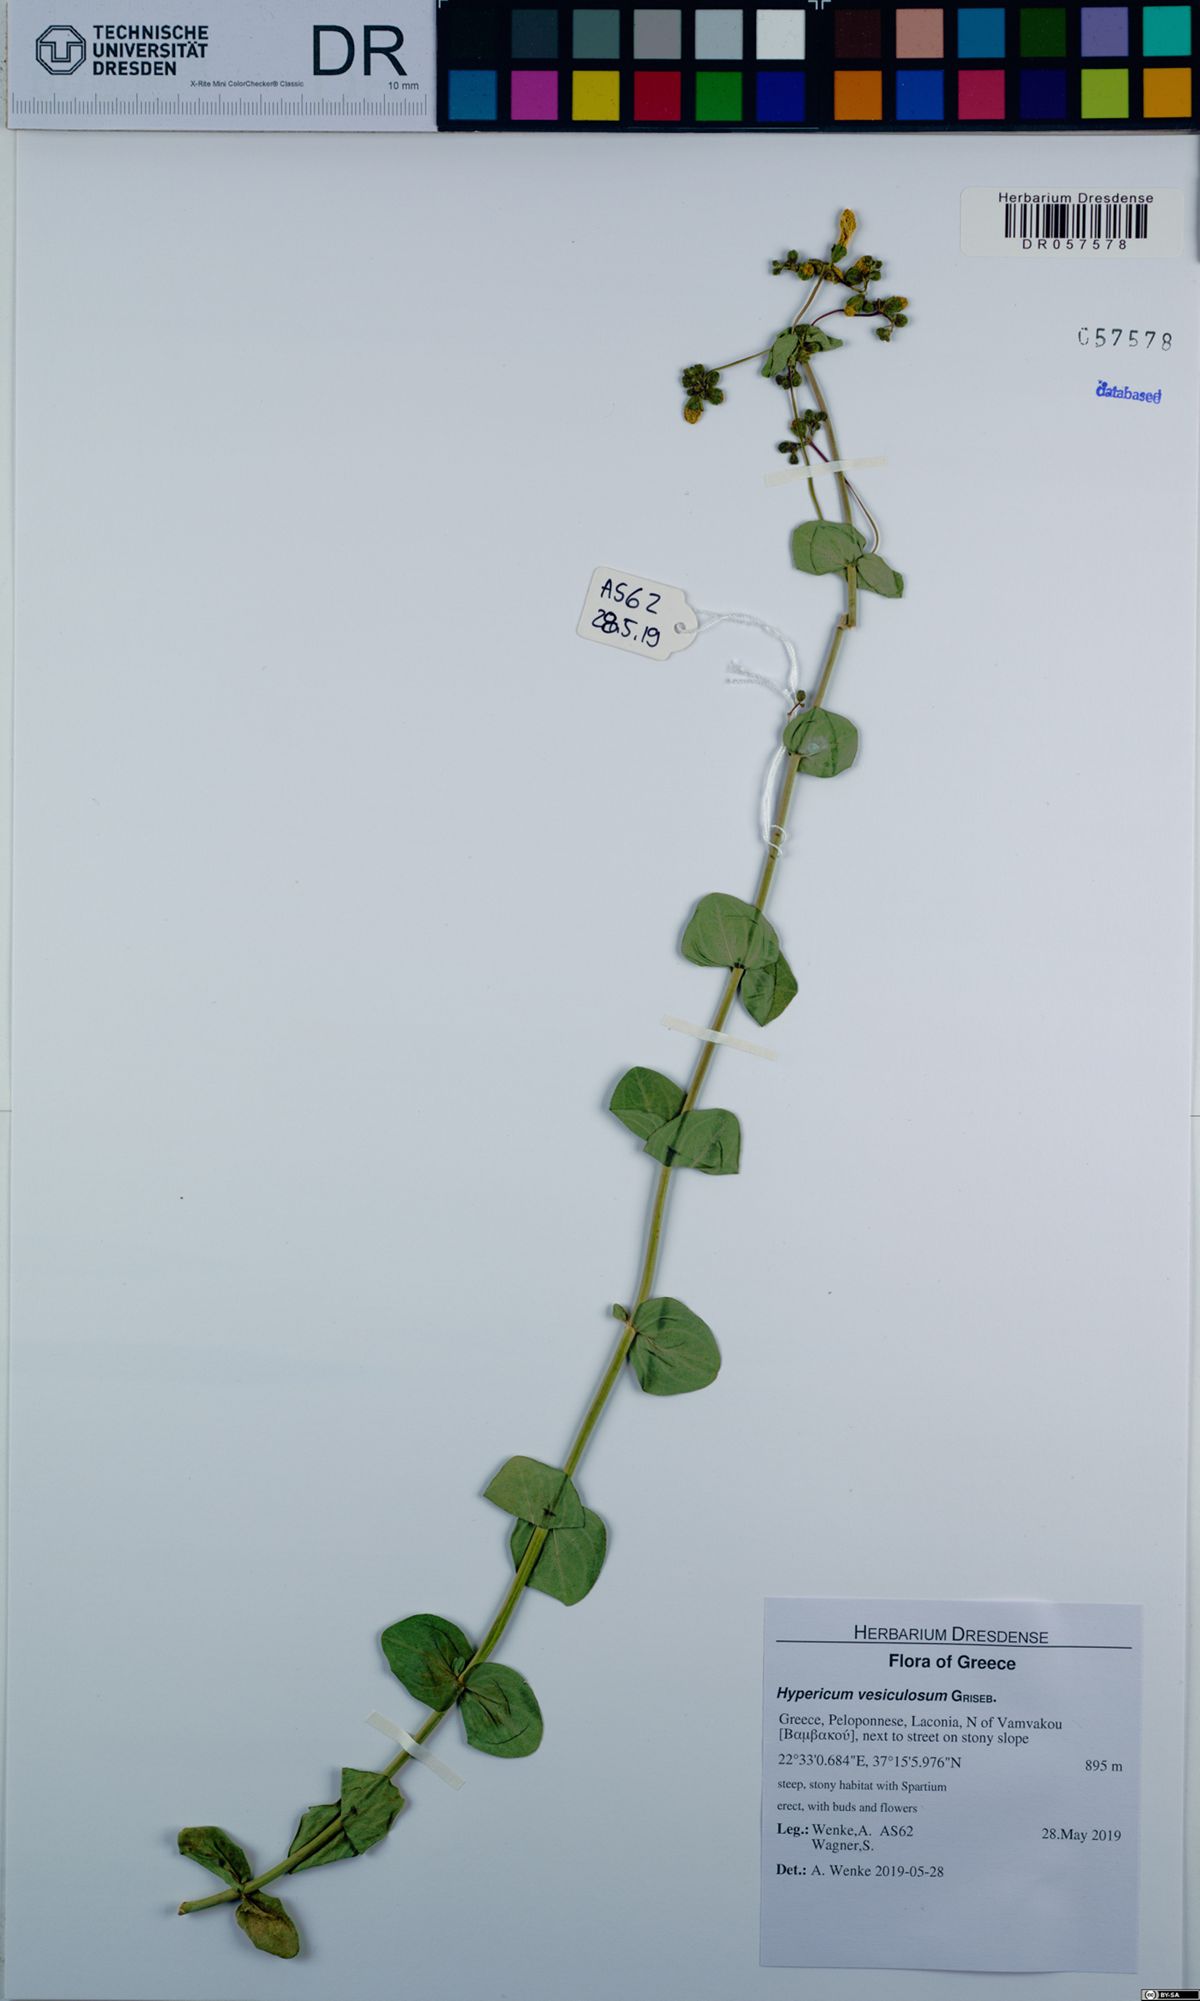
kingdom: Plantae
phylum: Tracheophyta
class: Magnoliopsida
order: Malpighiales
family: Hypericaceae
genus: Hypericum
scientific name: Hypericum vesiculosum
